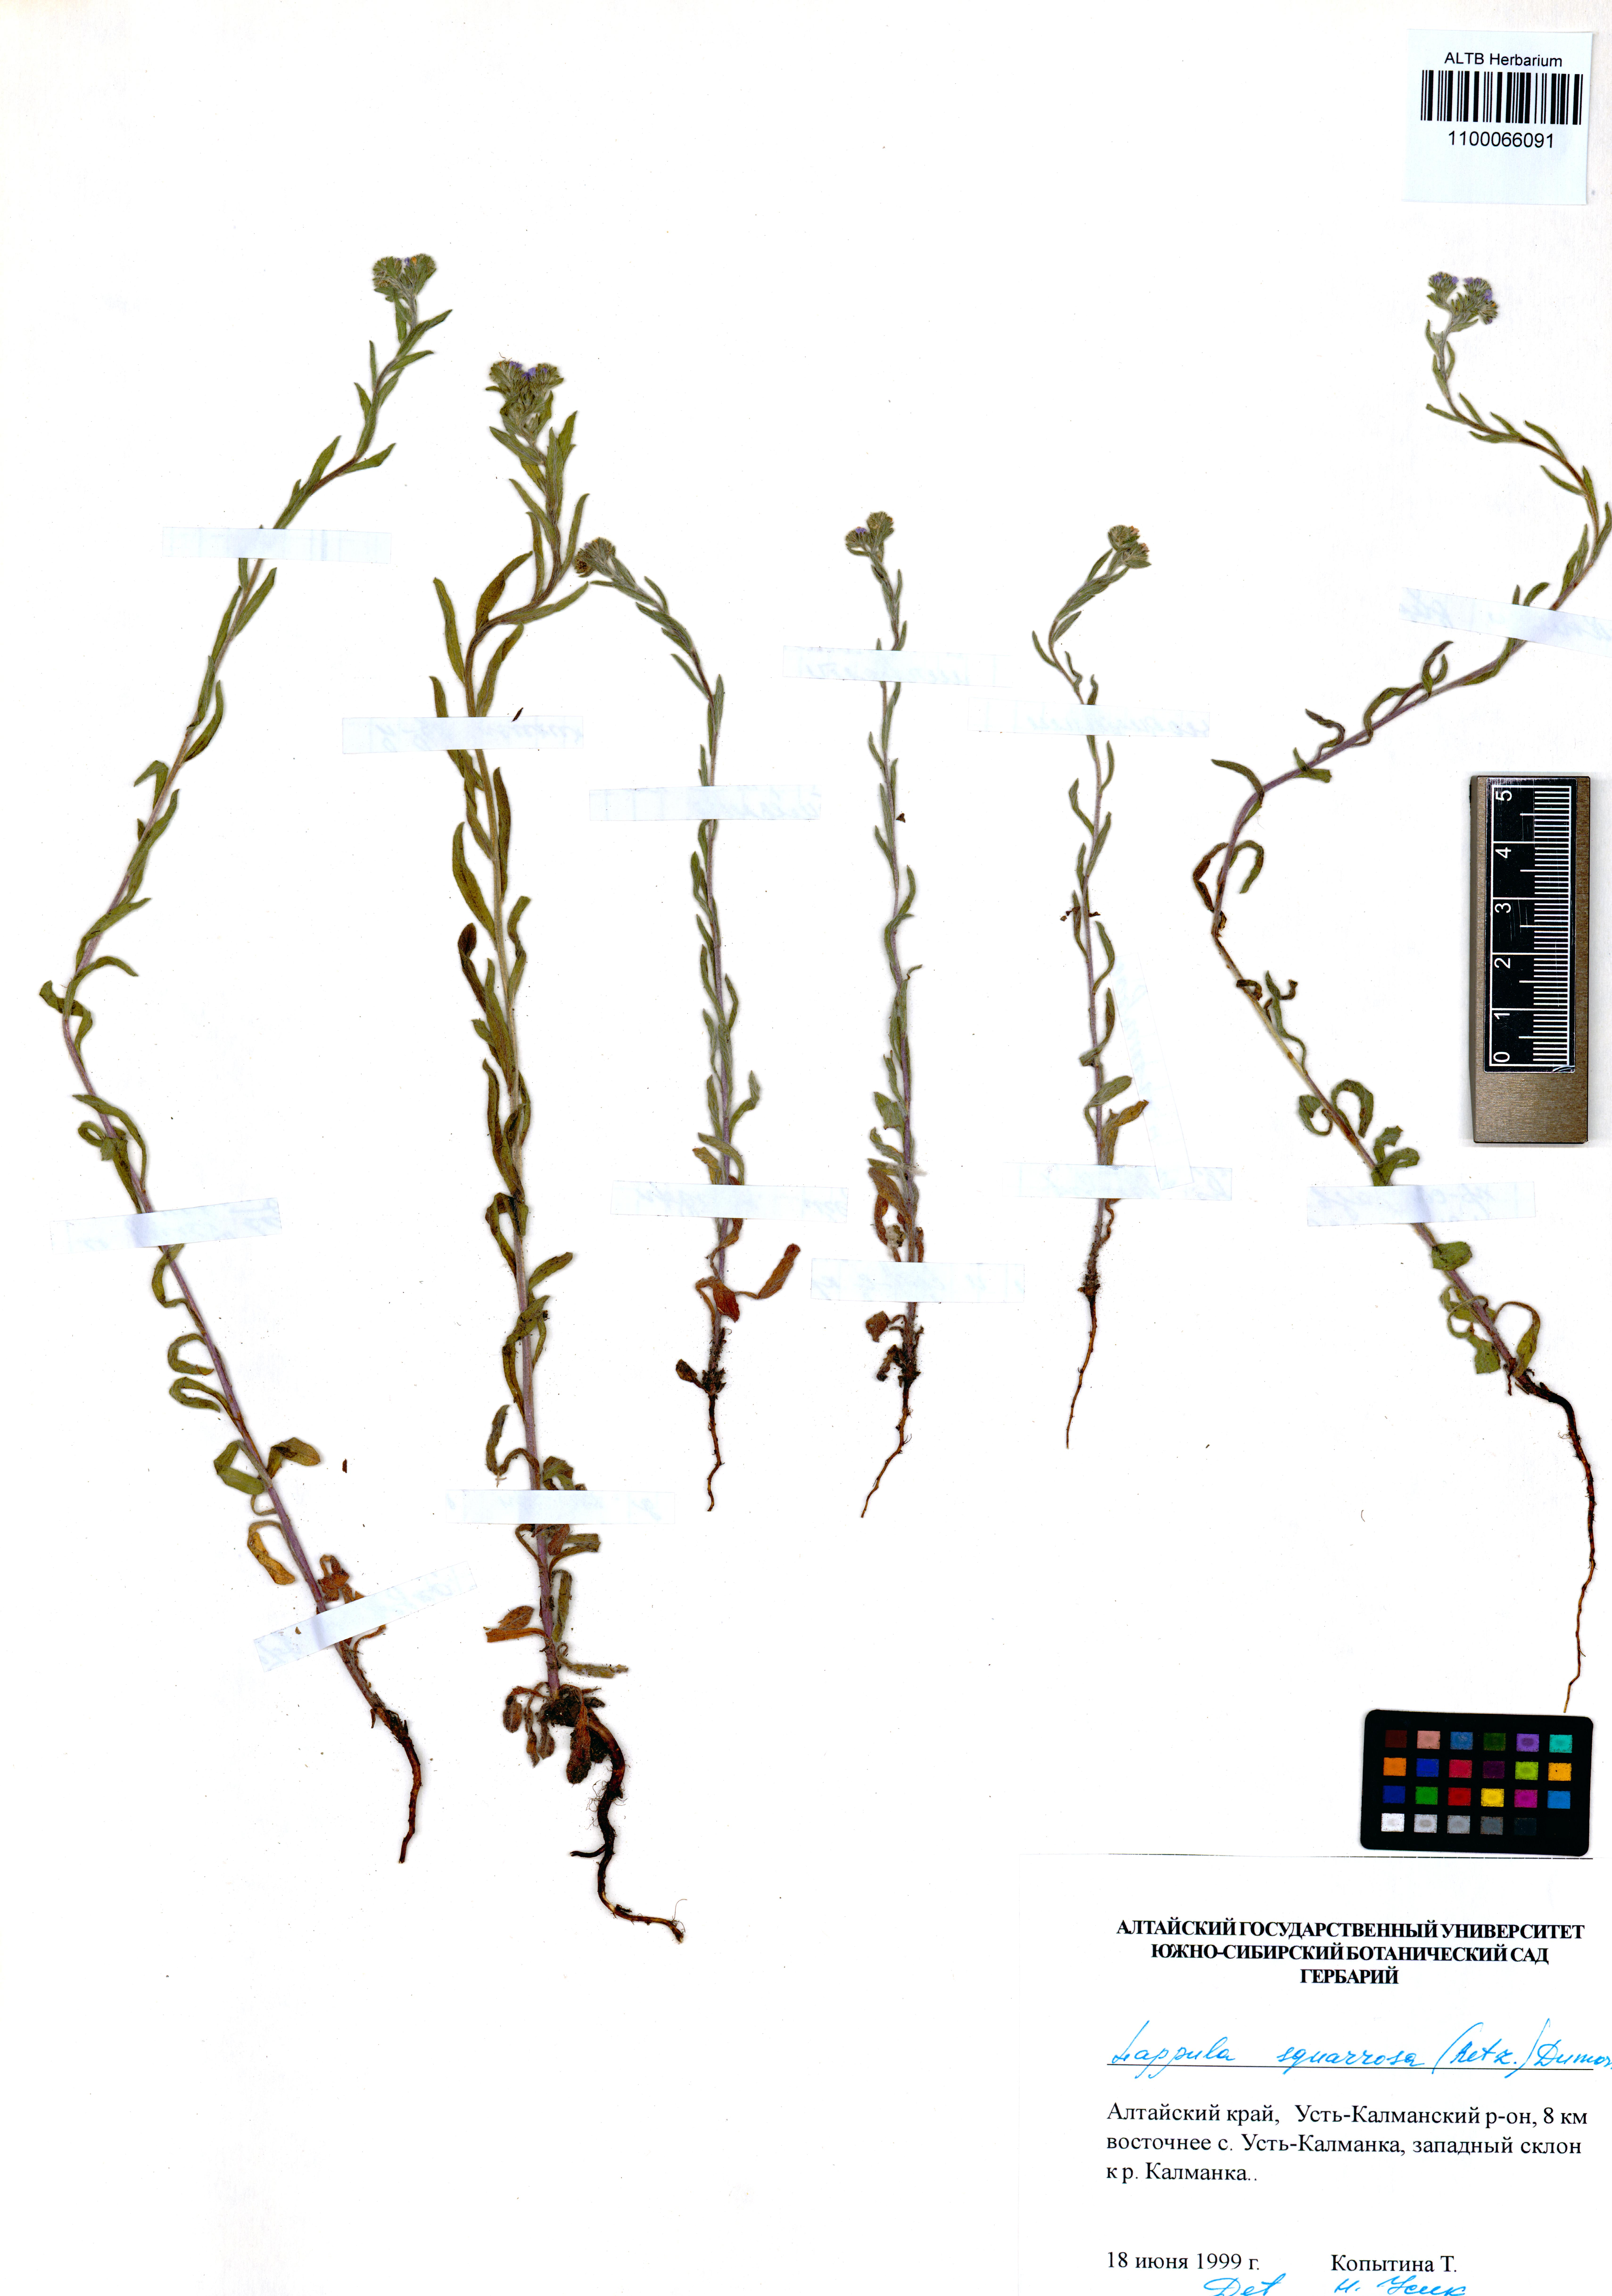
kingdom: Plantae
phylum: Tracheophyta
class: Magnoliopsida
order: Boraginales
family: Boraginaceae
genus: Lappula
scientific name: Lappula squarrosa
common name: European stickseed
